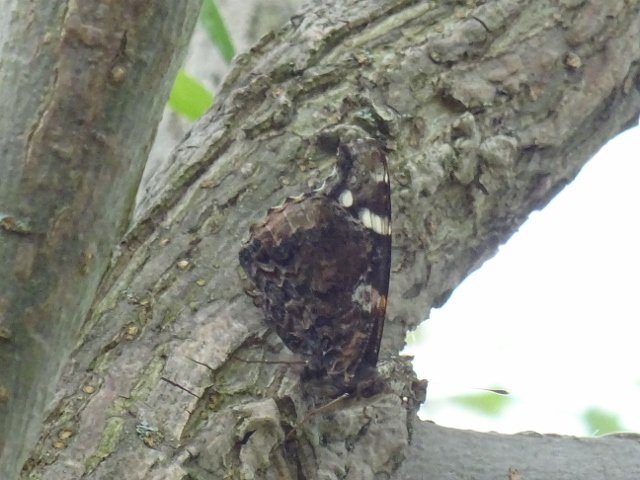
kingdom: Animalia
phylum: Arthropoda
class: Insecta
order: Lepidoptera
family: Nymphalidae
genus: Vanessa
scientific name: Vanessa atalanta
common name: Red Admiral
